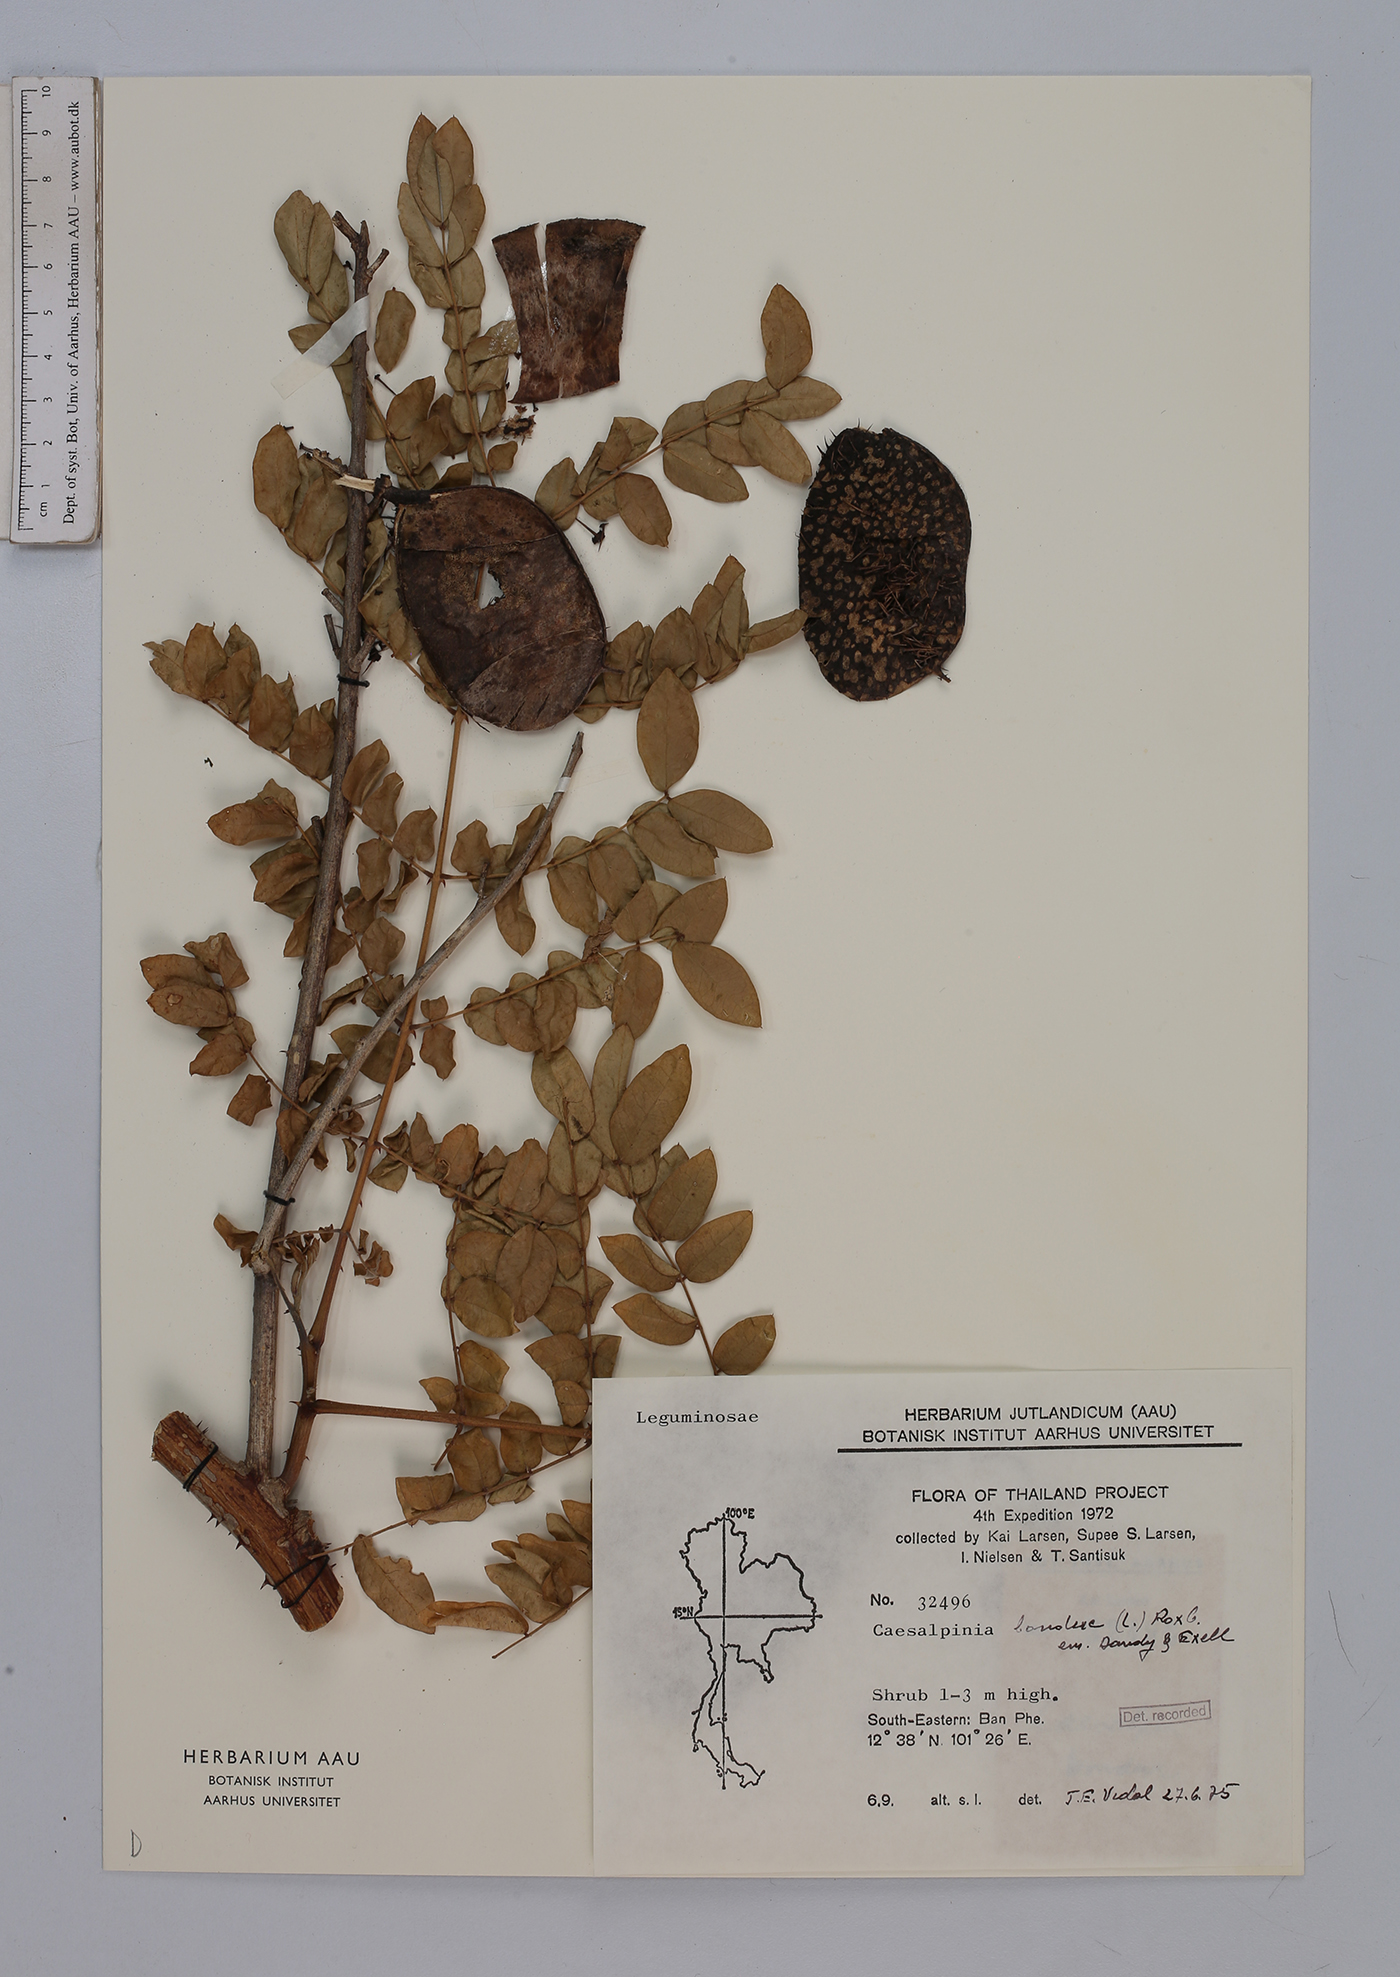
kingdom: Plantae
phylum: Tracheophyta
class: Magnoliopsida
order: Fabales
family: Fabaceae
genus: Guilandina
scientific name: Guilandina bonduc
